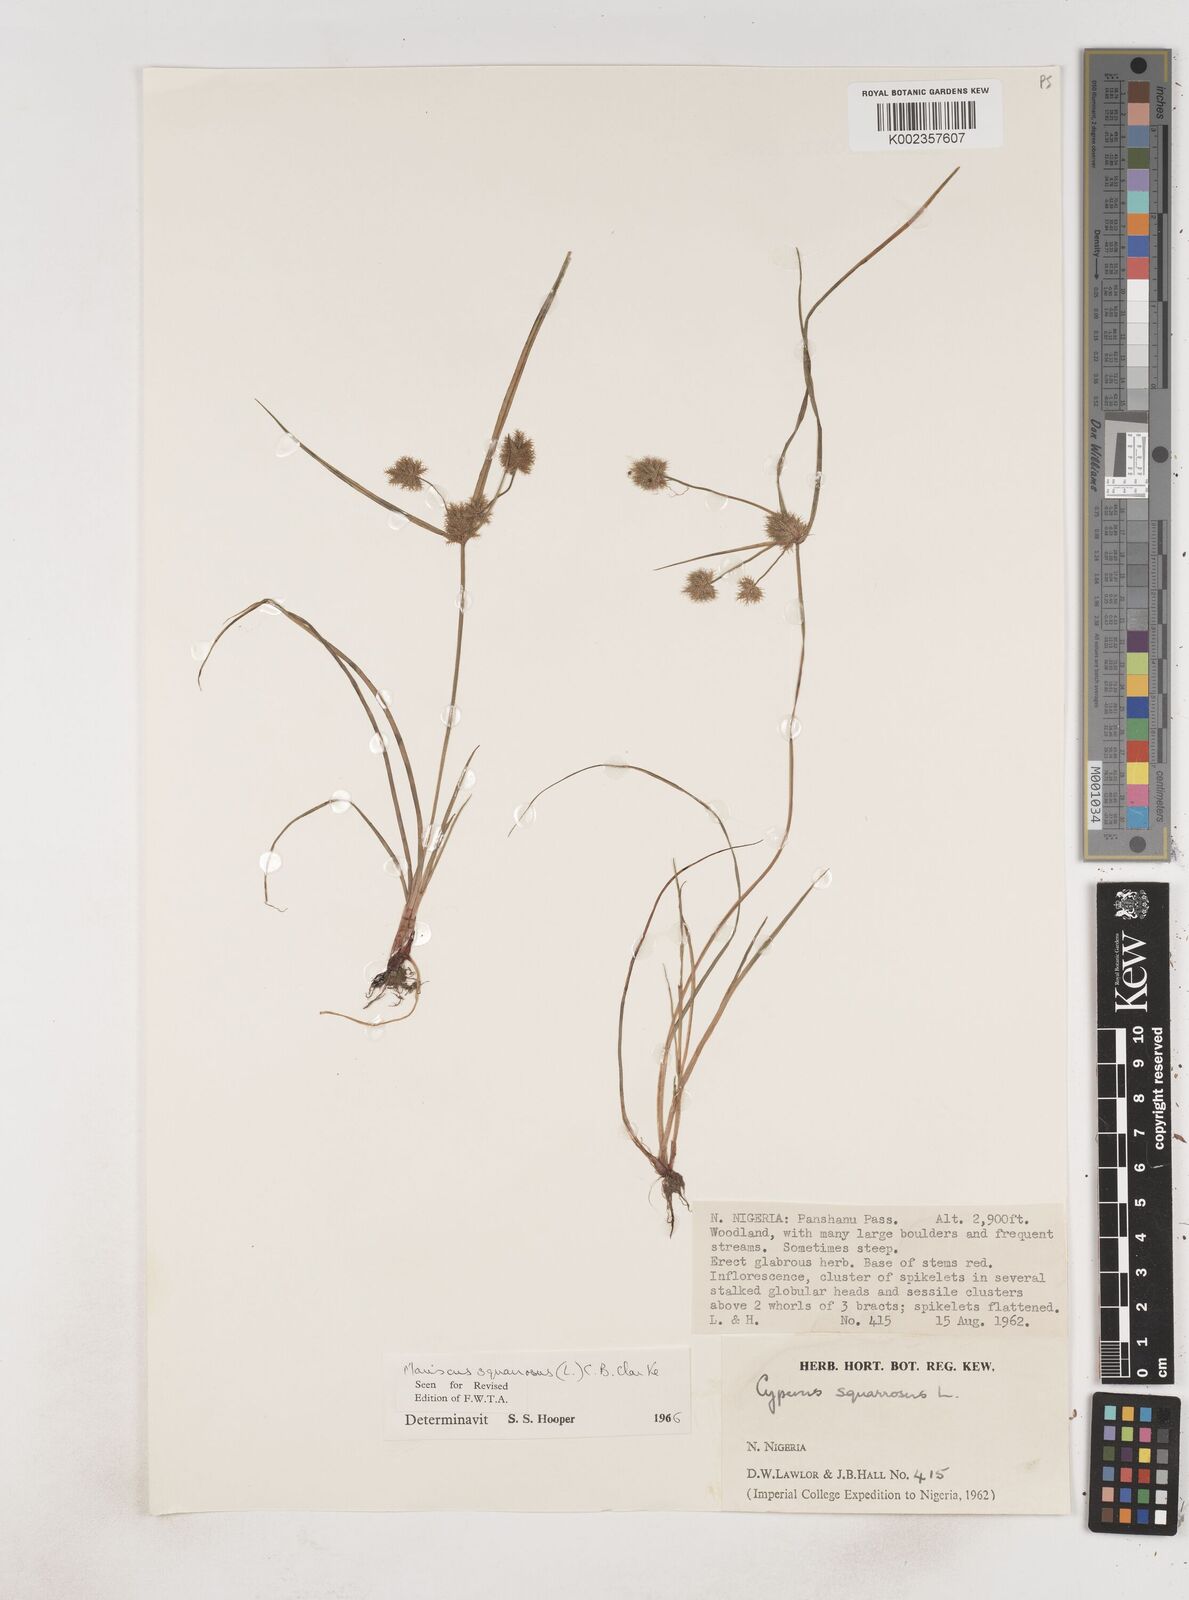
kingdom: Plantae
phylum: Tracheophyta
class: Liliopsida
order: Poales
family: Cyperaceae
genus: Cyperus
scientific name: Cyperus squarrosus
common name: Awned cyperus
